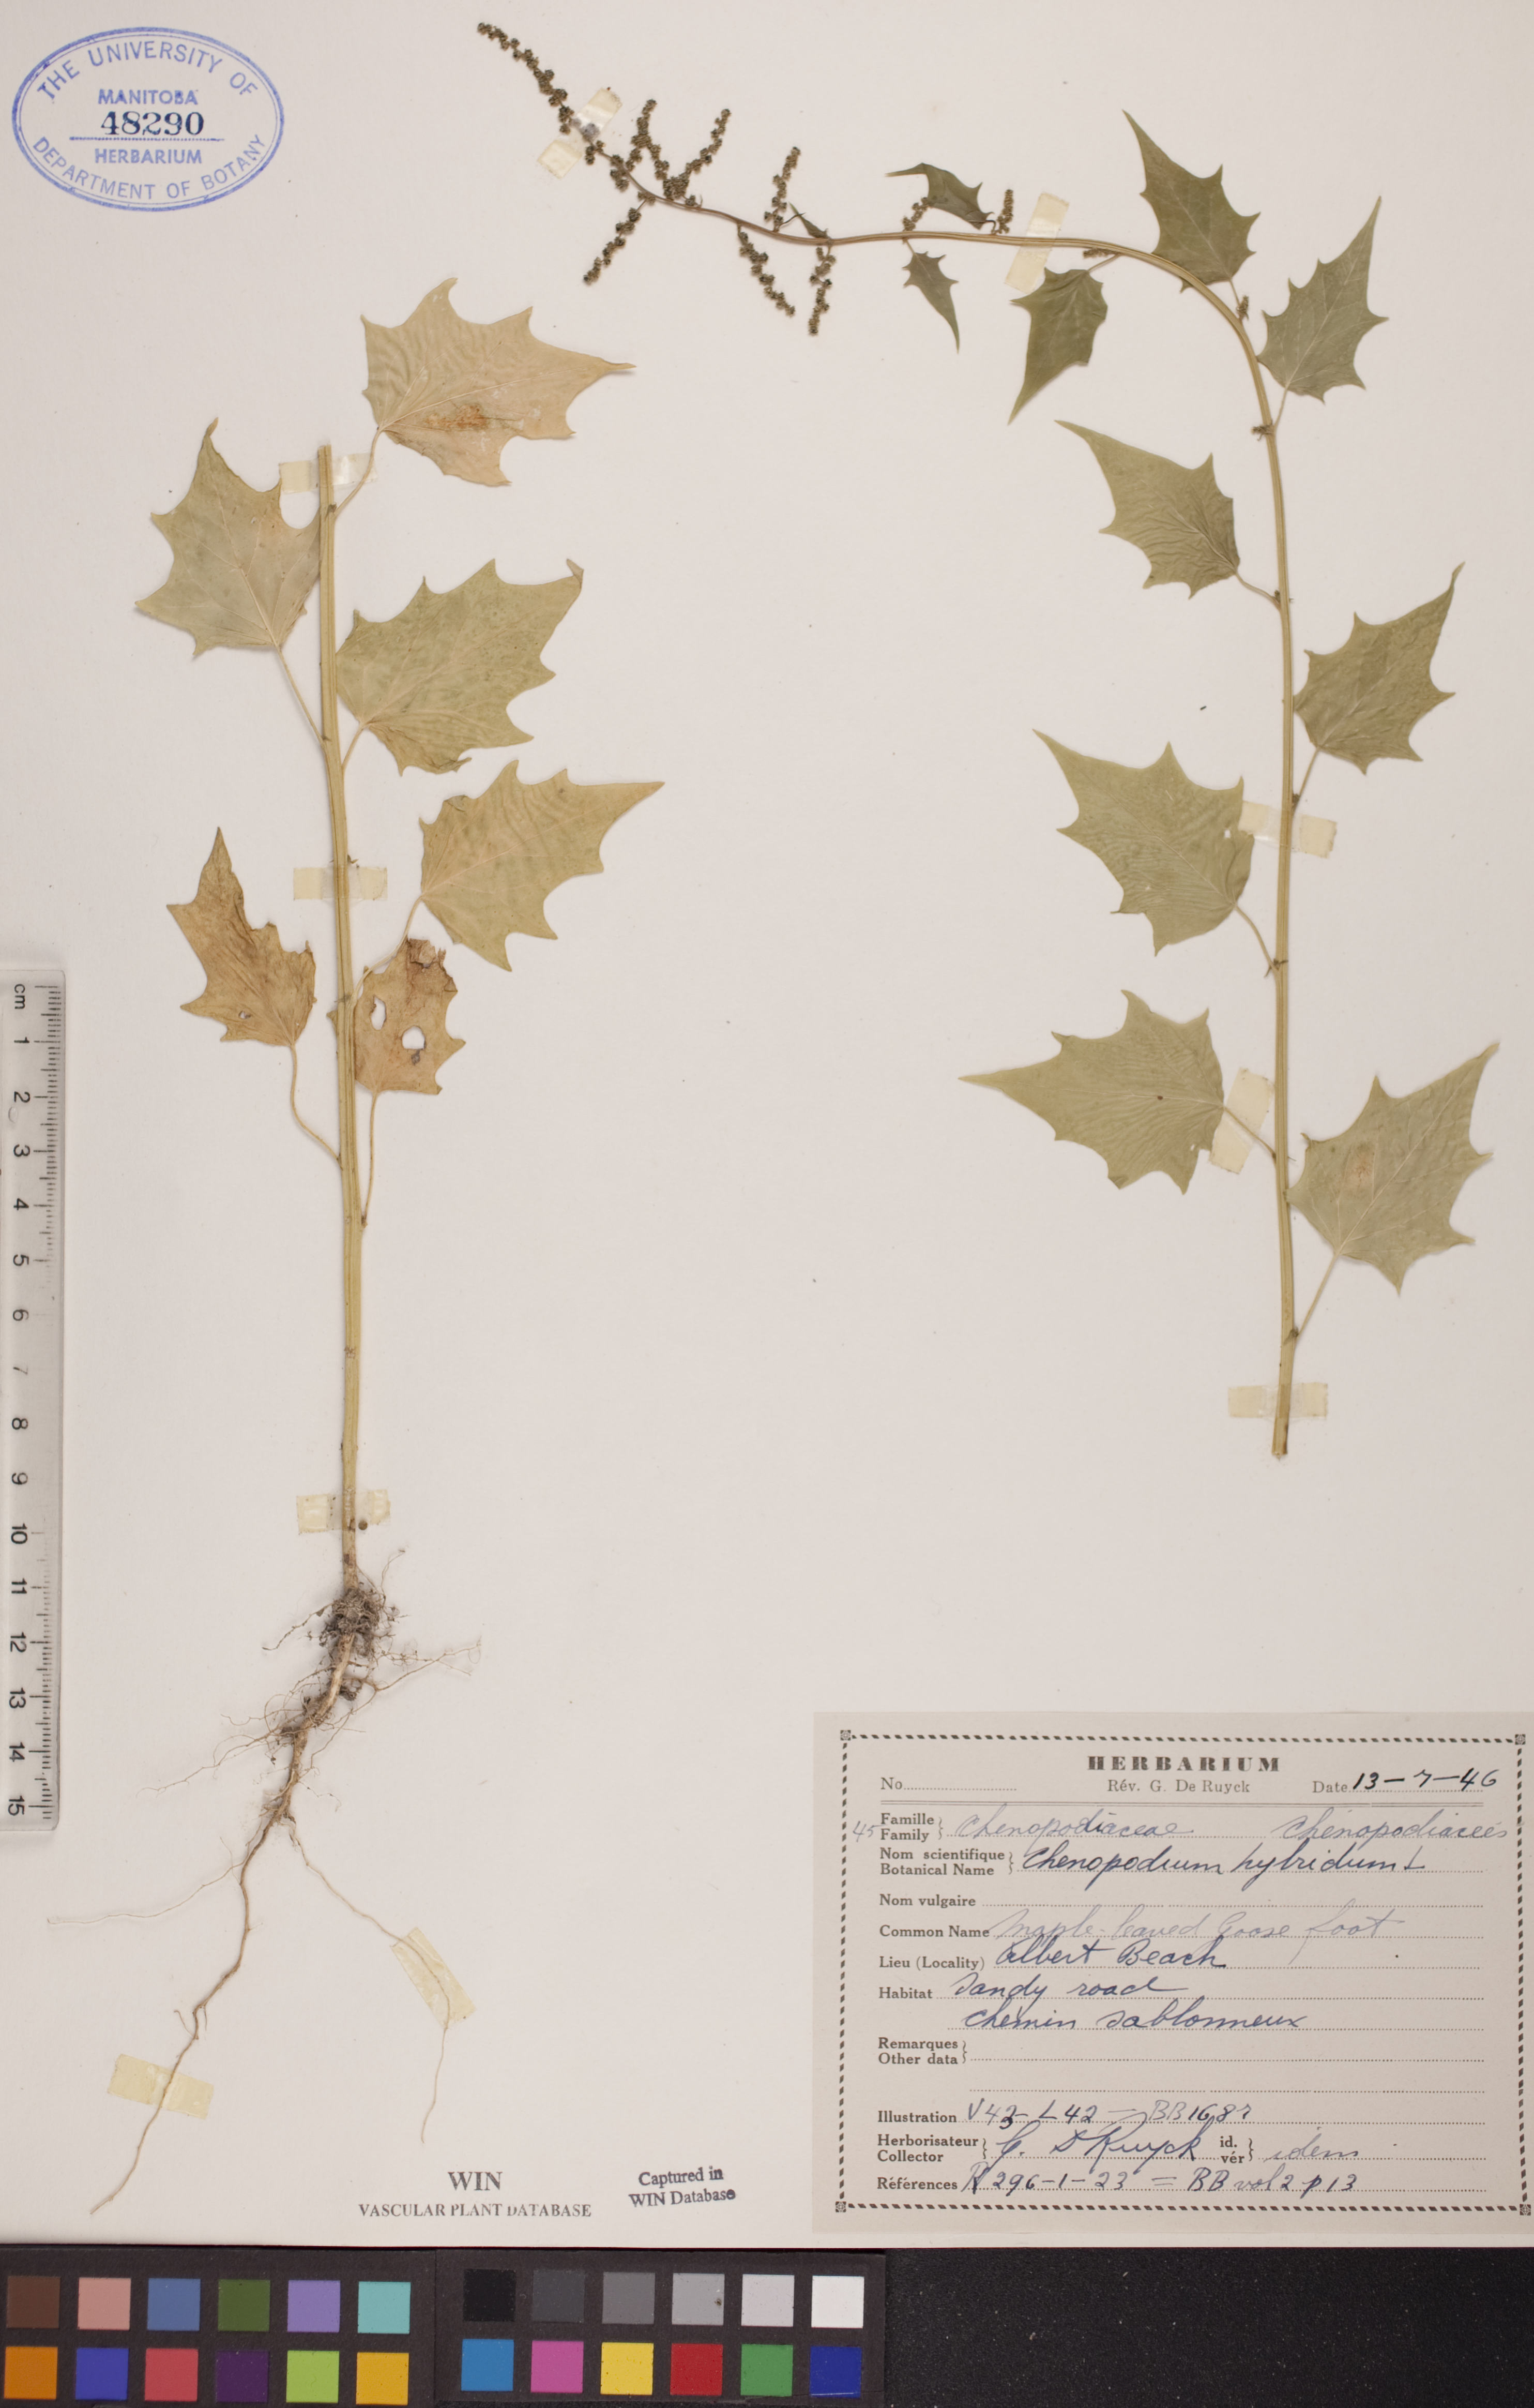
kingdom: Plantae
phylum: Tracheophyta
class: Magnoliopsida
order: Caryophyllales
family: Amaranthaceae
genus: Chenopodiastrum
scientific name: Chenopodiastrum hybridum
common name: Mapleleaf goosefoot
